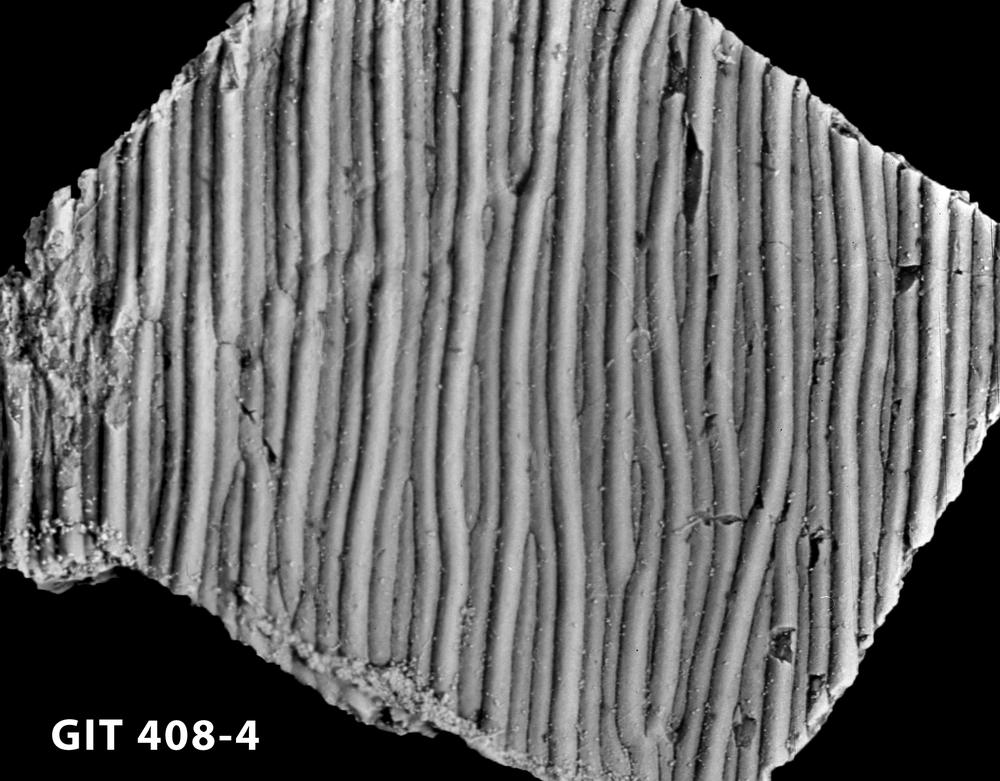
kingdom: Animalia
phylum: Chordata
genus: Archegonaspis
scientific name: Archegonaspis
